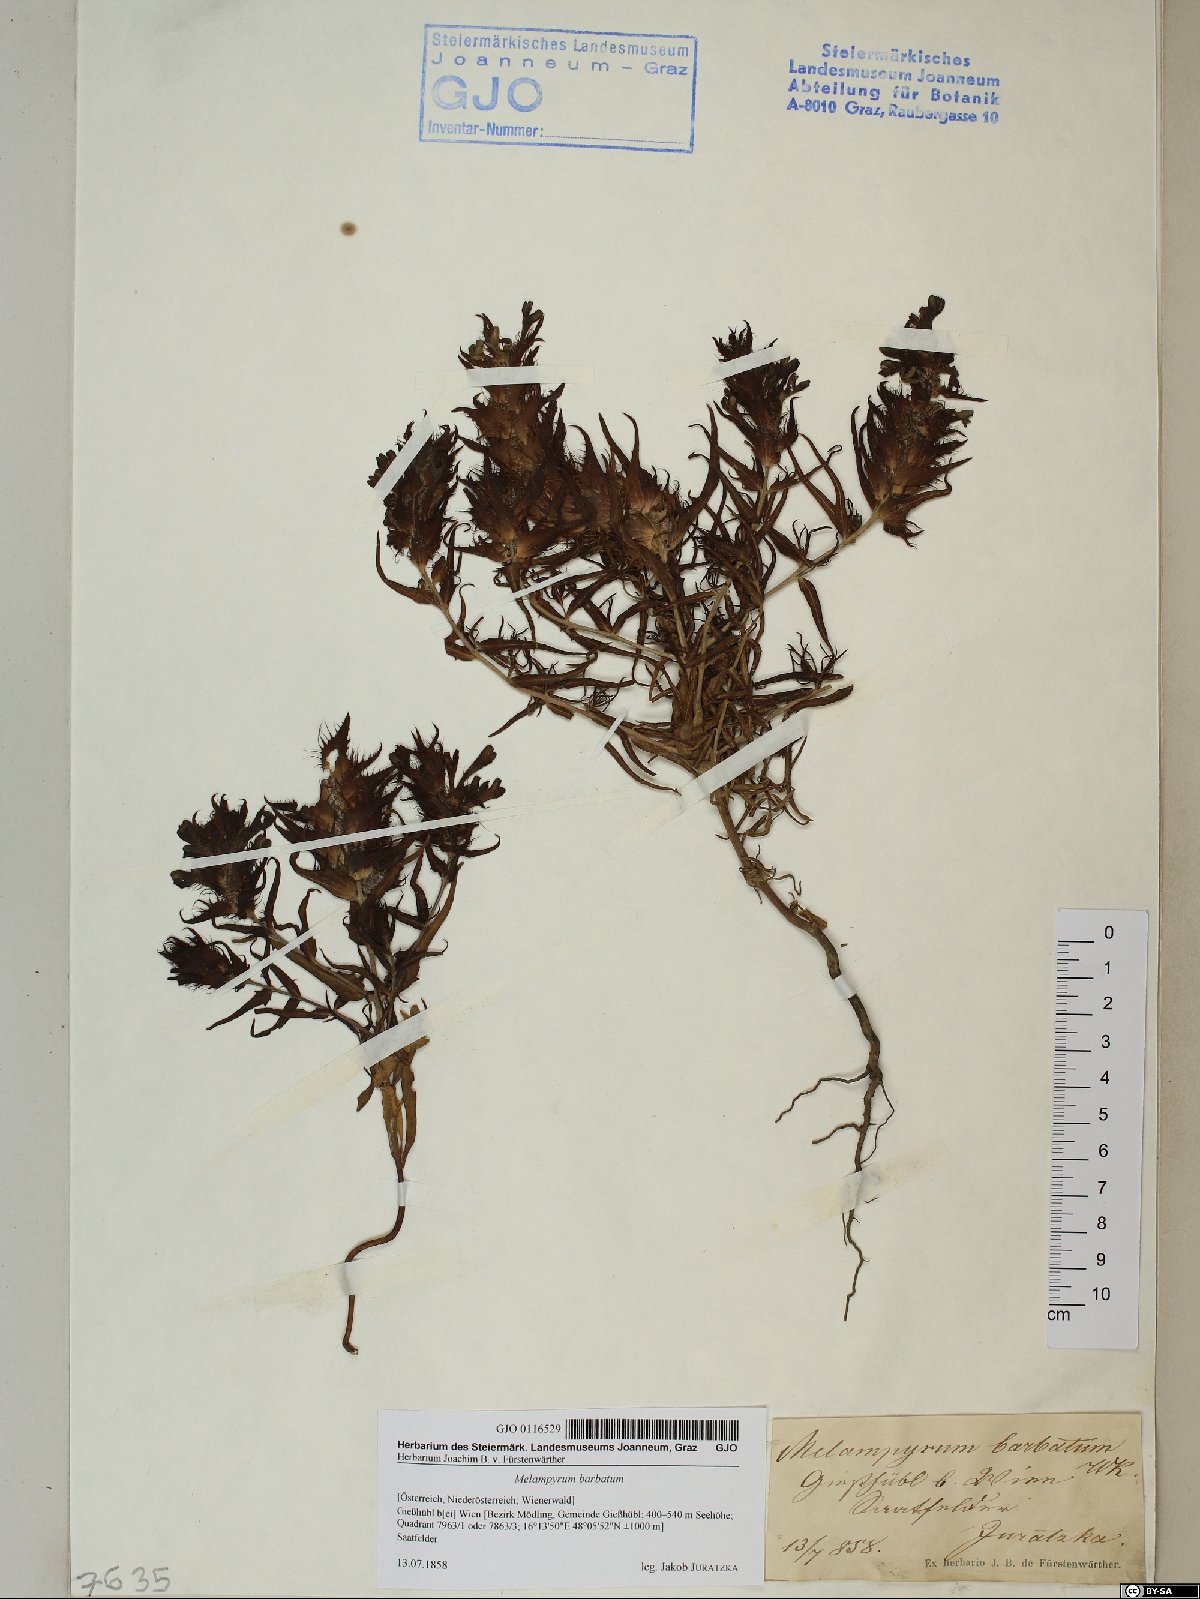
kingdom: Plantae
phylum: Tracheophyta
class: Magnoliopsida
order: Lamiales
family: Orobanchaceae
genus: Melampyrum
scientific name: Melampyrum barbatum
